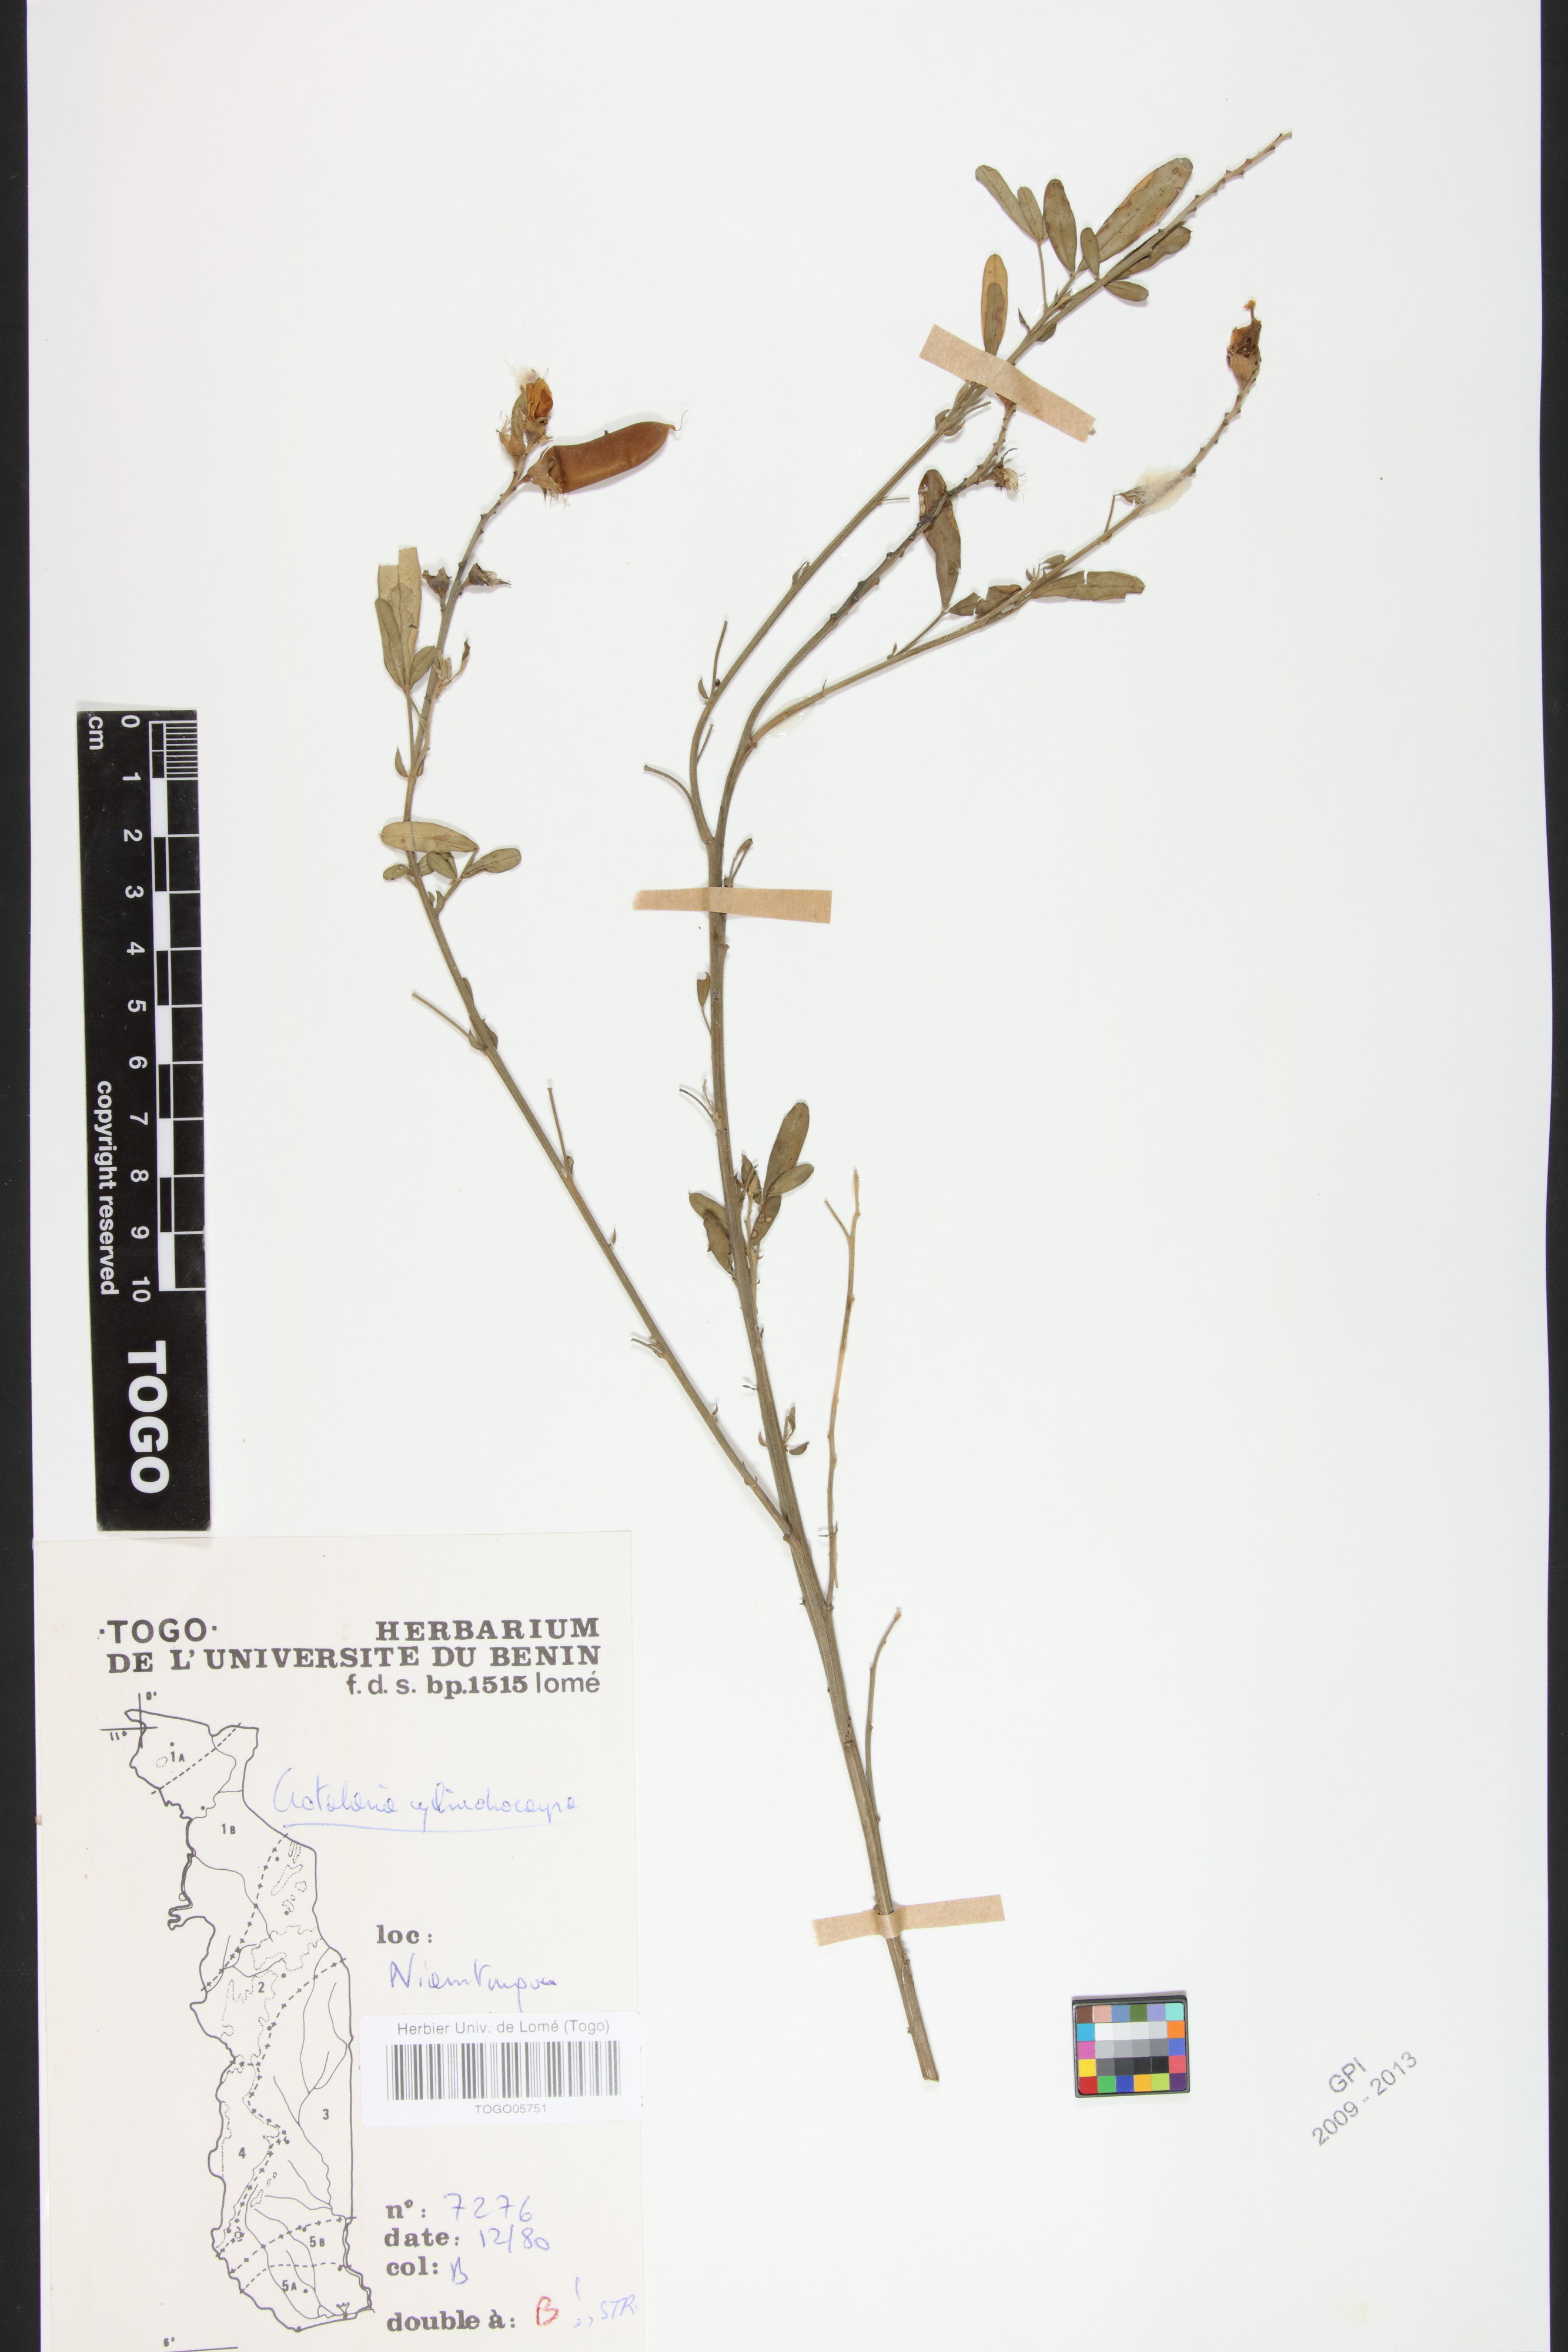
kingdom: Plantae
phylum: Tracheophyta
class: Magnoliopsida
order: Fabales
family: Fabaceae
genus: Crotalaria
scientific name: Crotalaria cylindrocarpa
